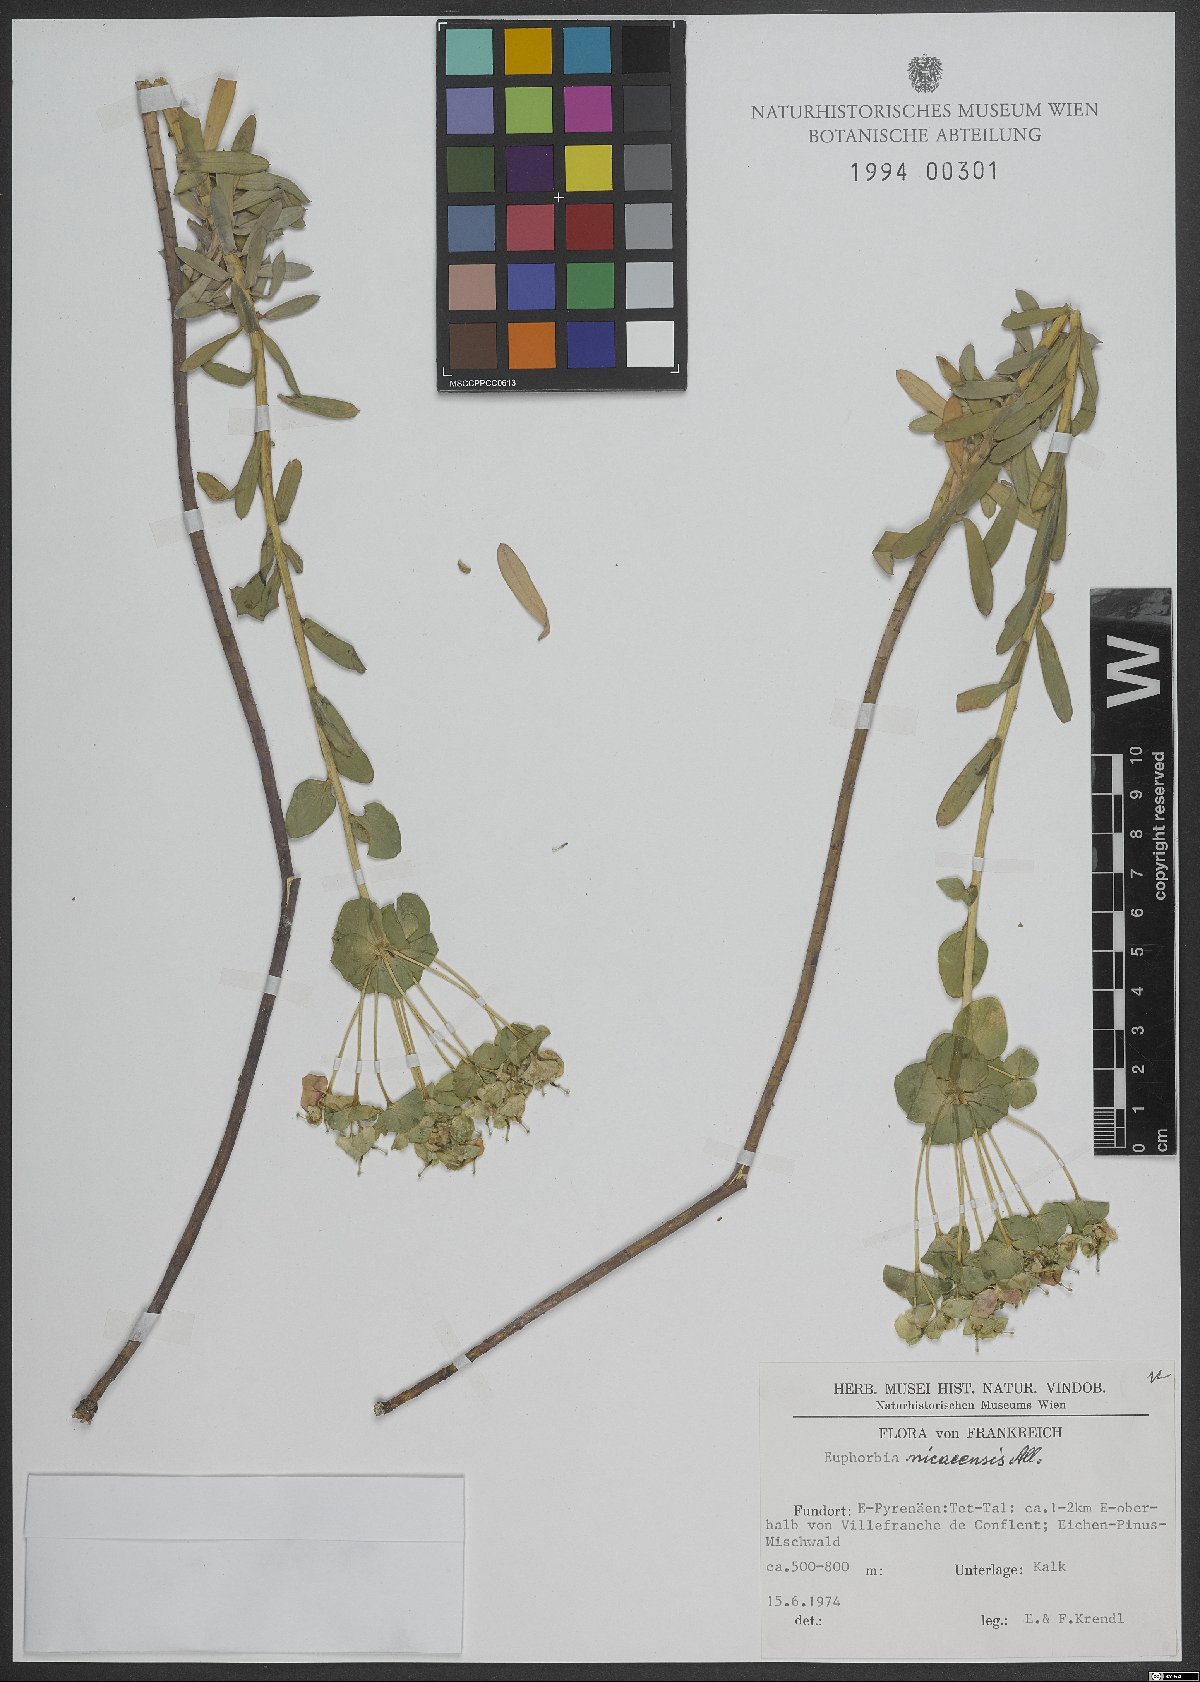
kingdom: Plantae
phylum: Tracheophyta
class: Magnoliopsida
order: Malpighiales
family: Euphorbiaceae
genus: Euphorbia
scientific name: Euphorbia nicaeensis
